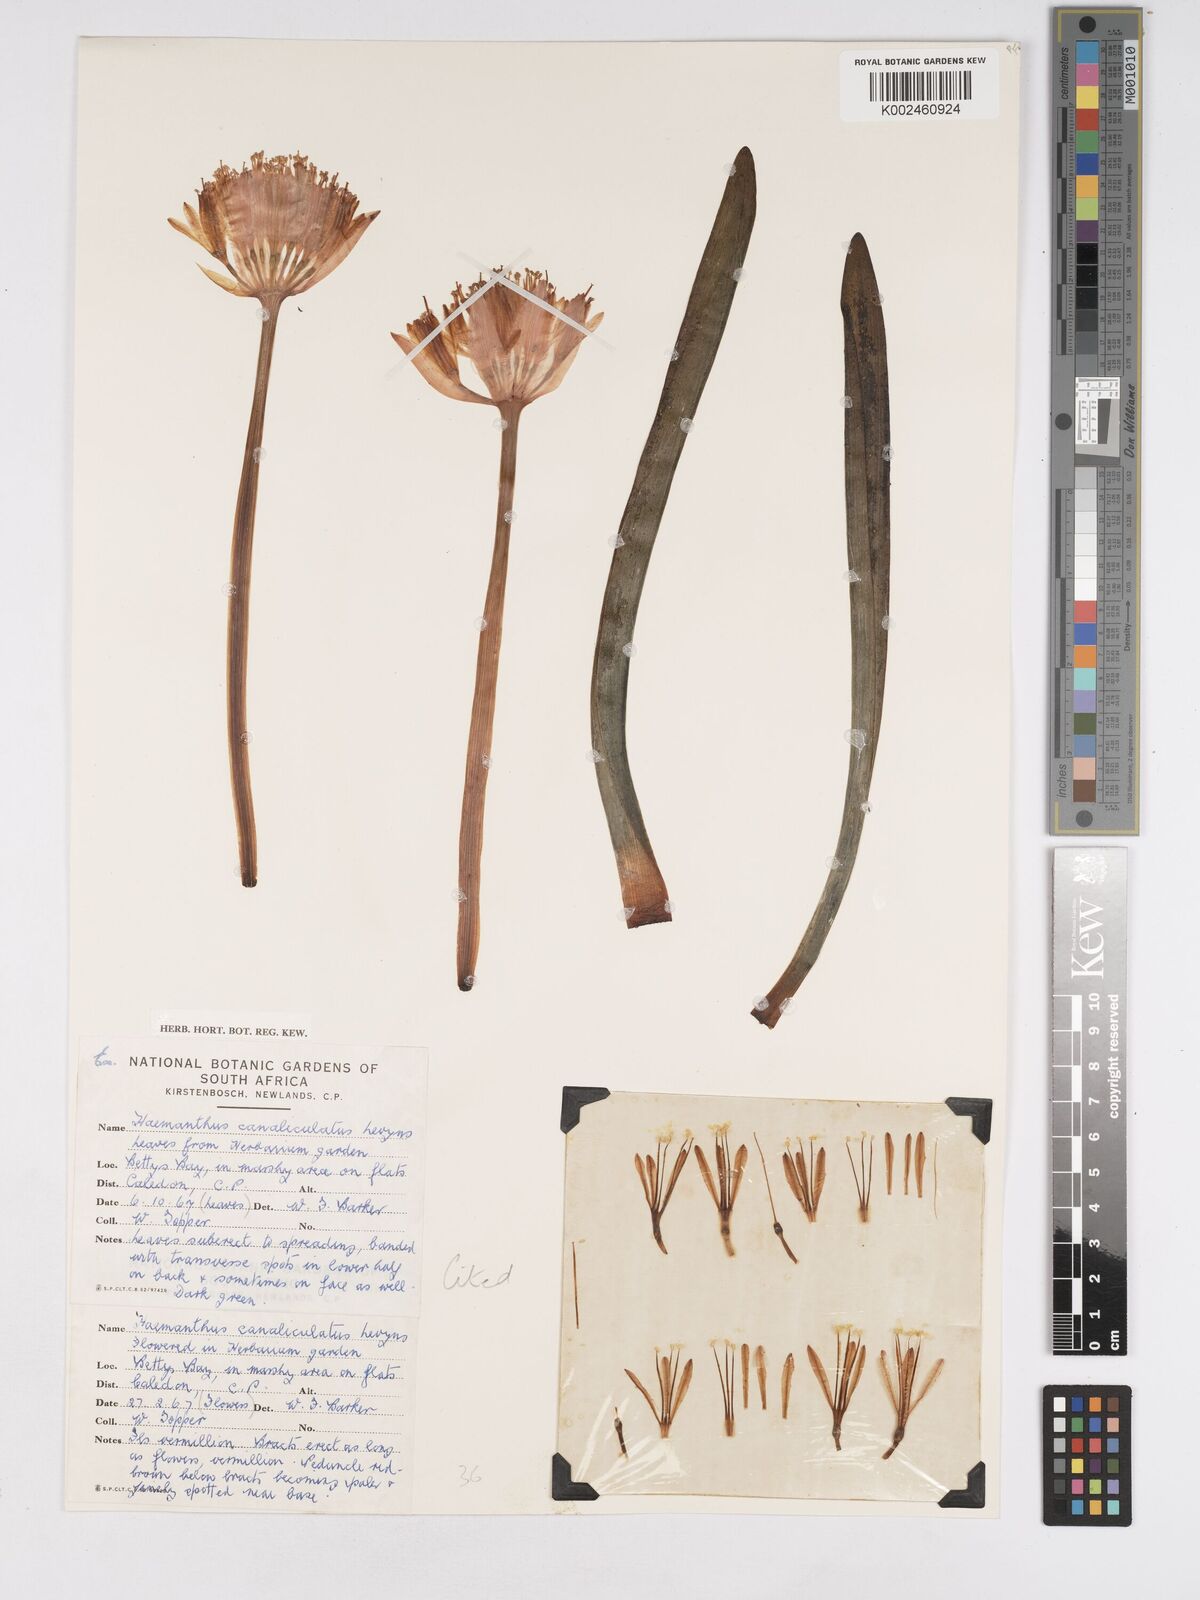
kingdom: Plantae
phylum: Tracheophyta
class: Liliopsida
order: Asparagales
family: Amaryllidaceae
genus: Haemanthus
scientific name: Haemanthus canaliculatus
